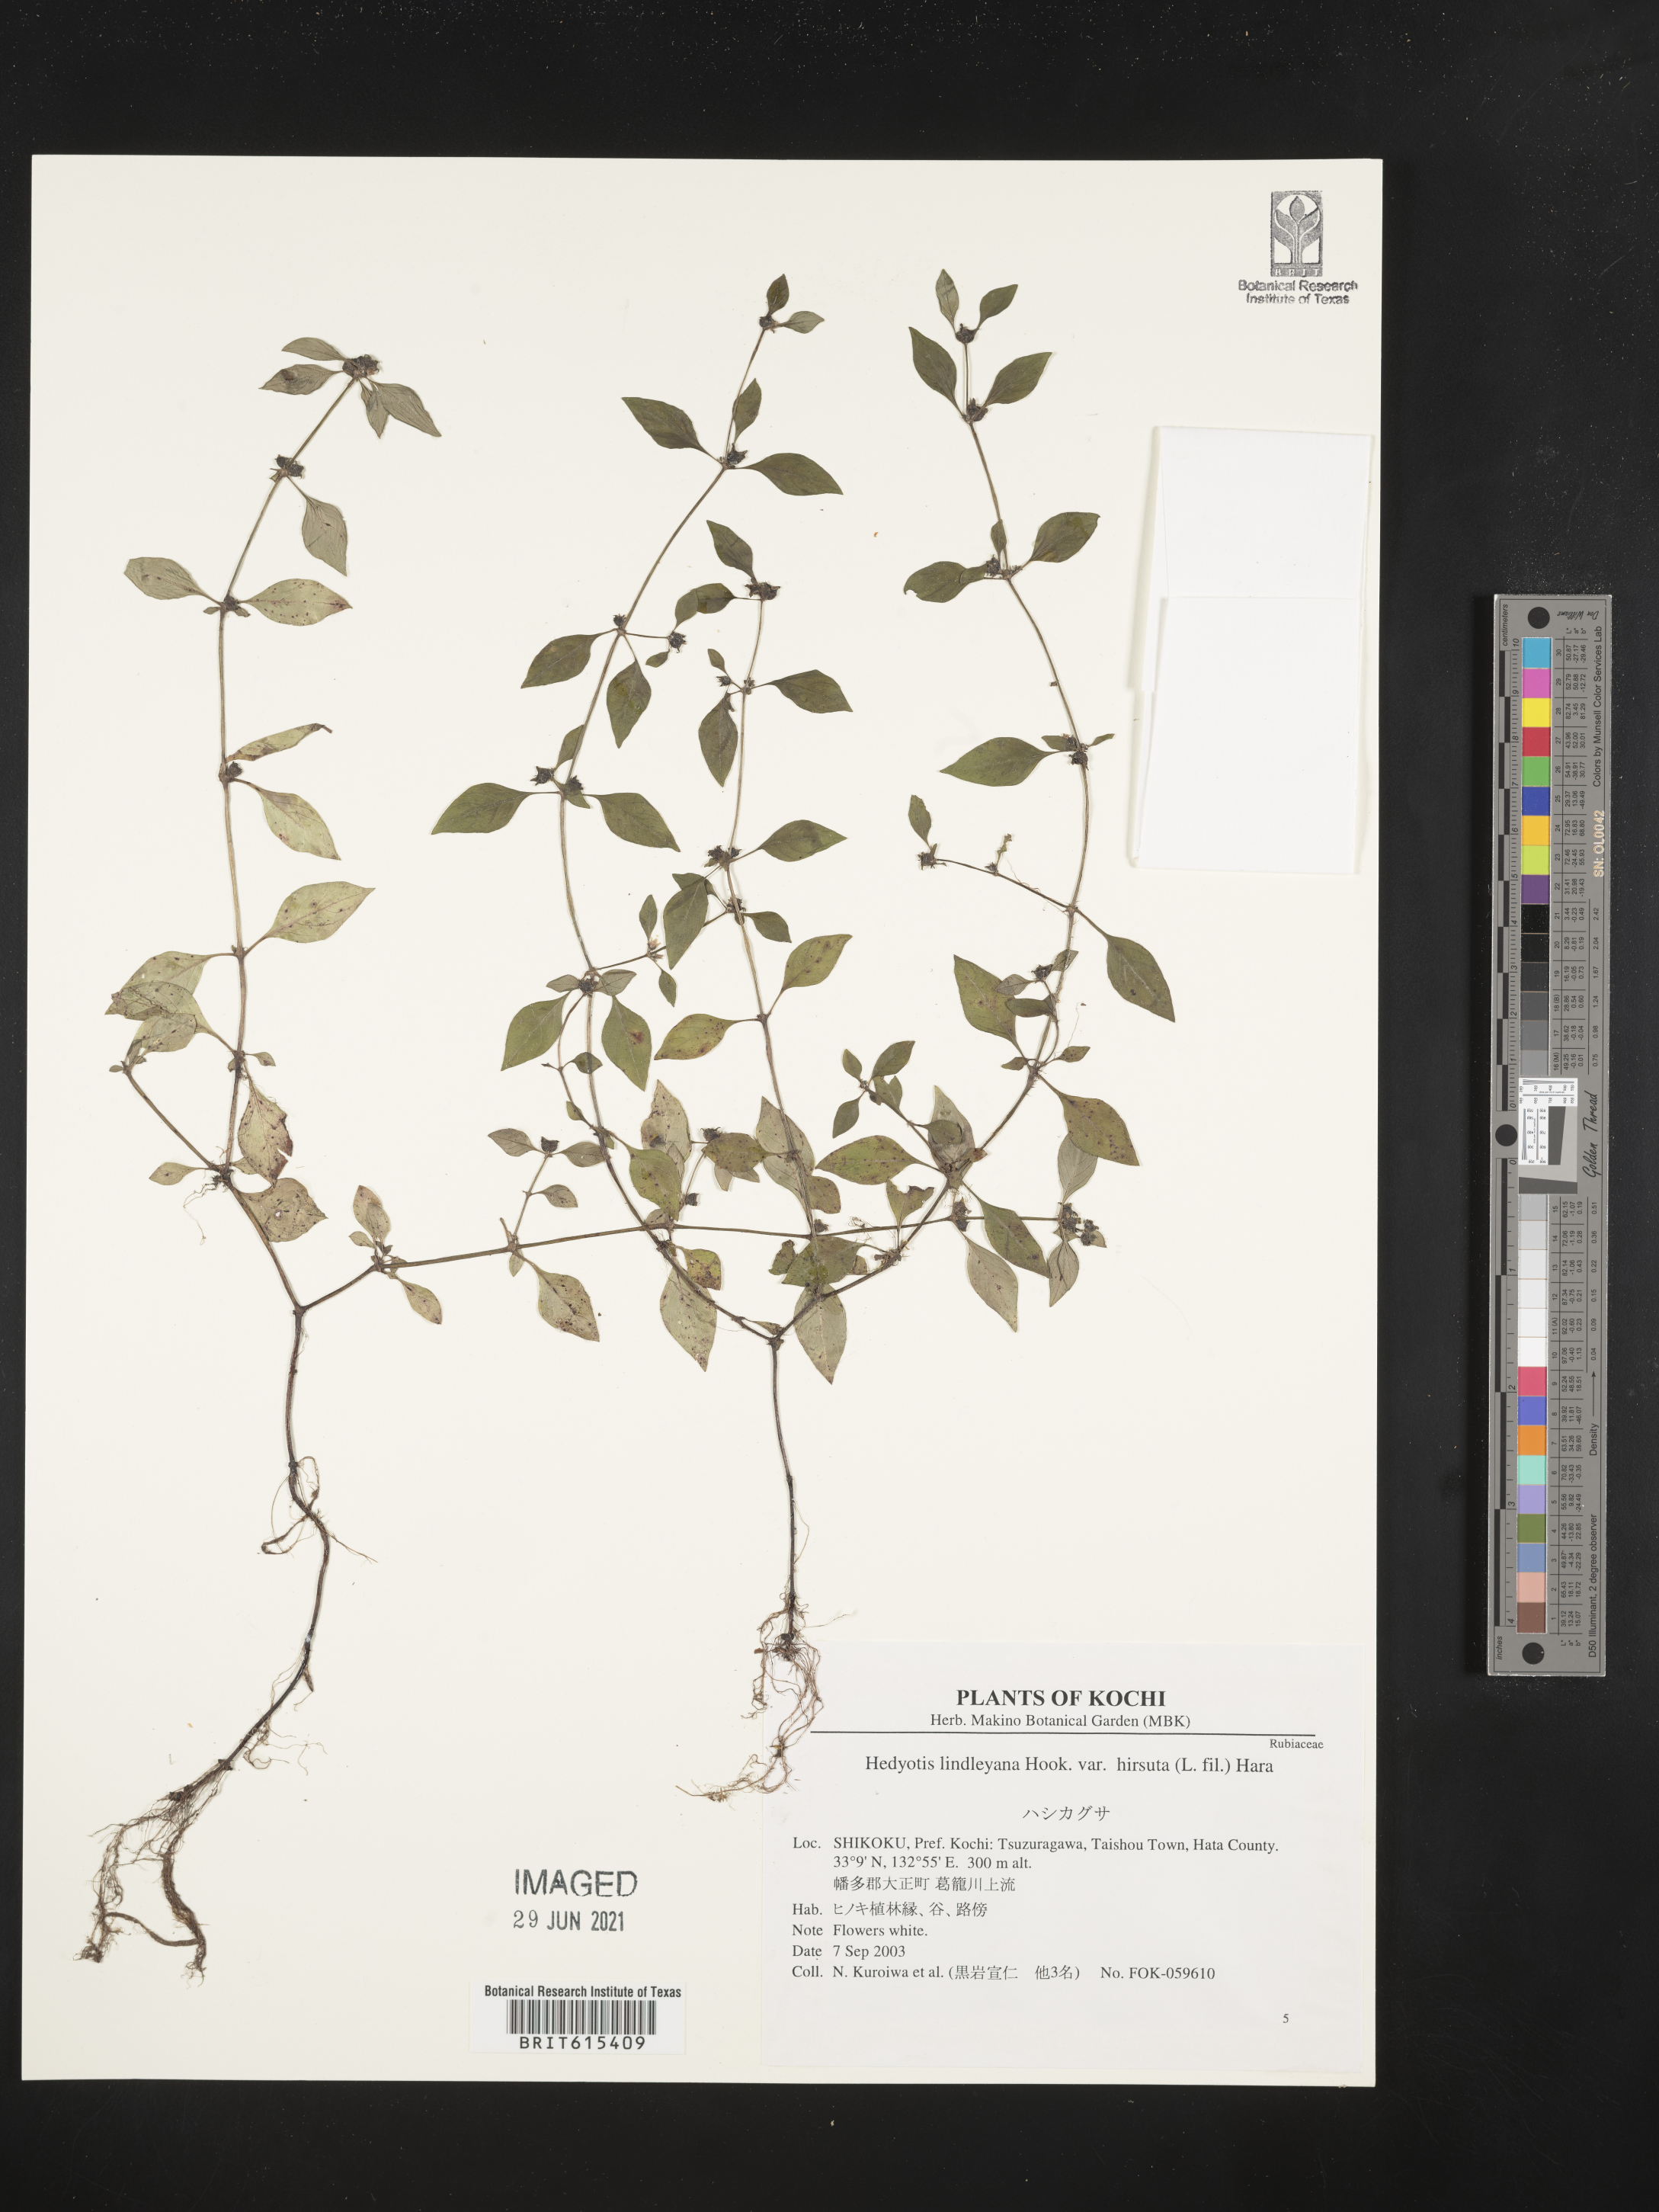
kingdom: Plantae
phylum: Tracheophyta
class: Magnoliopsida
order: Gentianales
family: Rubiaceae
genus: Neanotis
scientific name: Neanotis hirsuta
